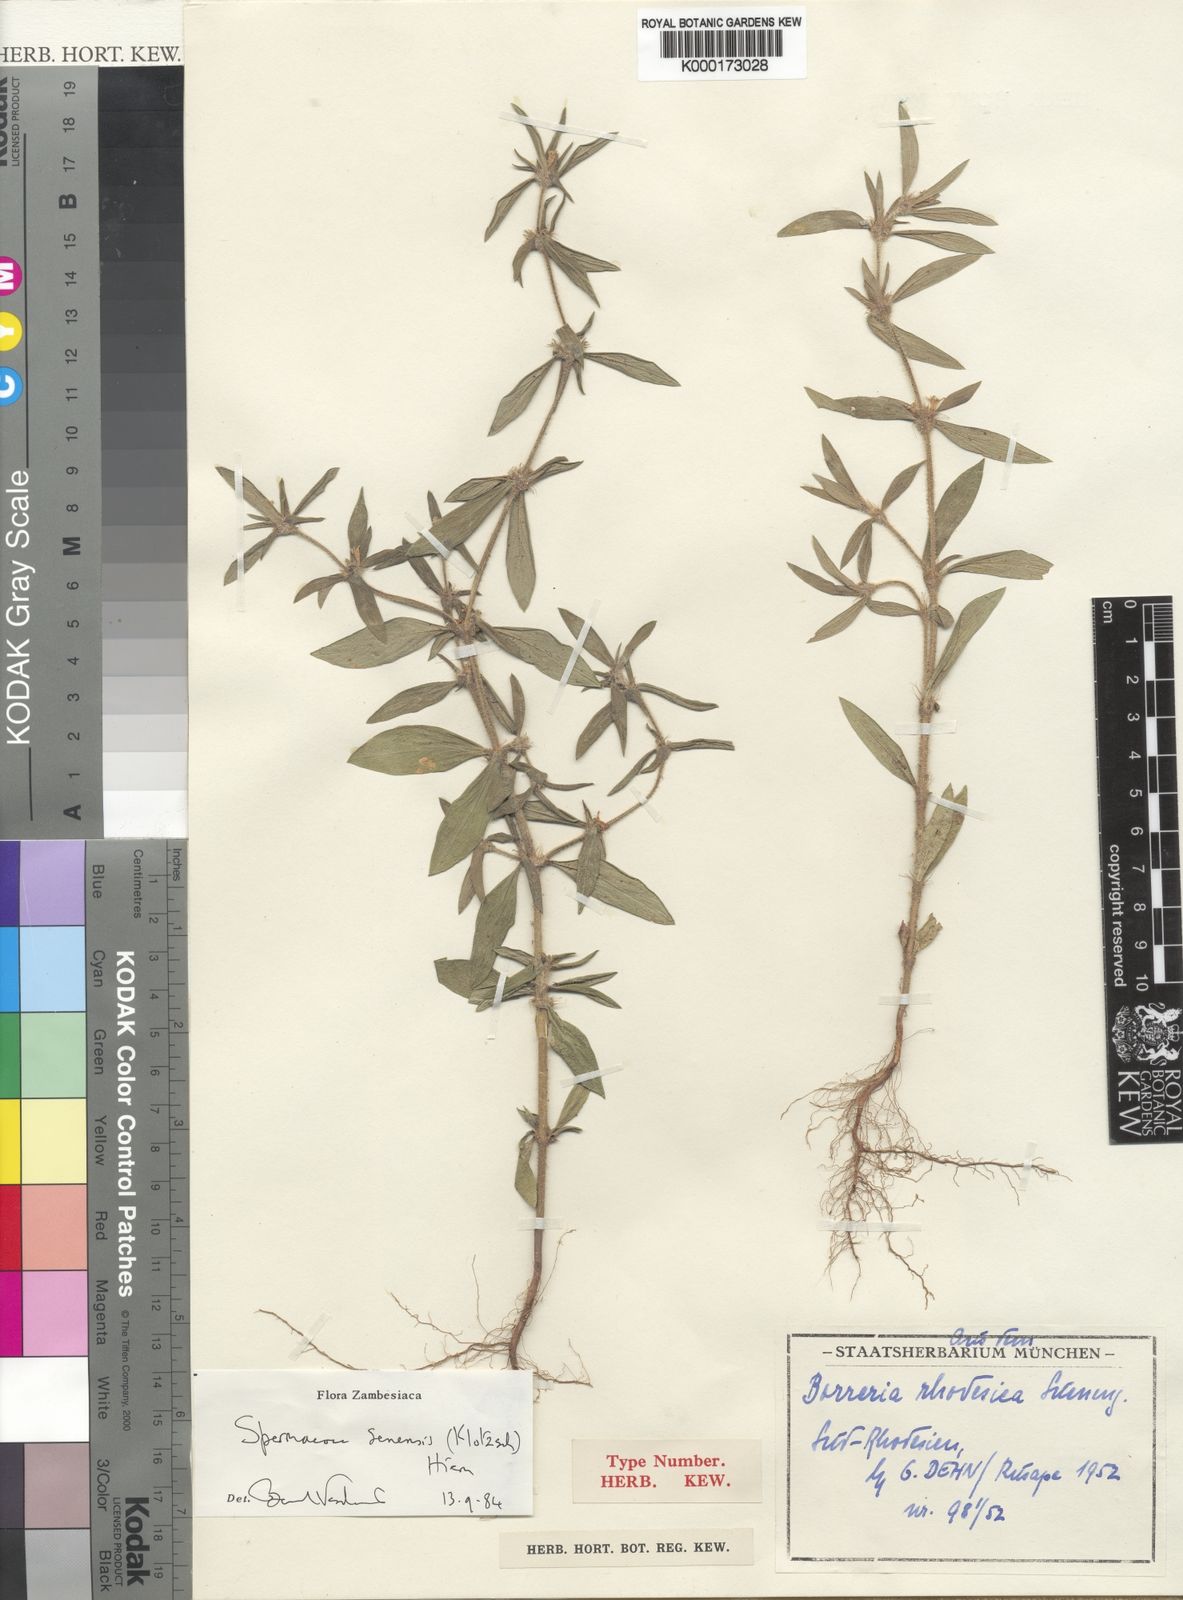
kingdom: Plantae
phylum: Tracheophyta
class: Magnoliopsida
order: Gentianales
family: Rubiaceae
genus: Spermacoce
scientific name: Spermacoce senensis
